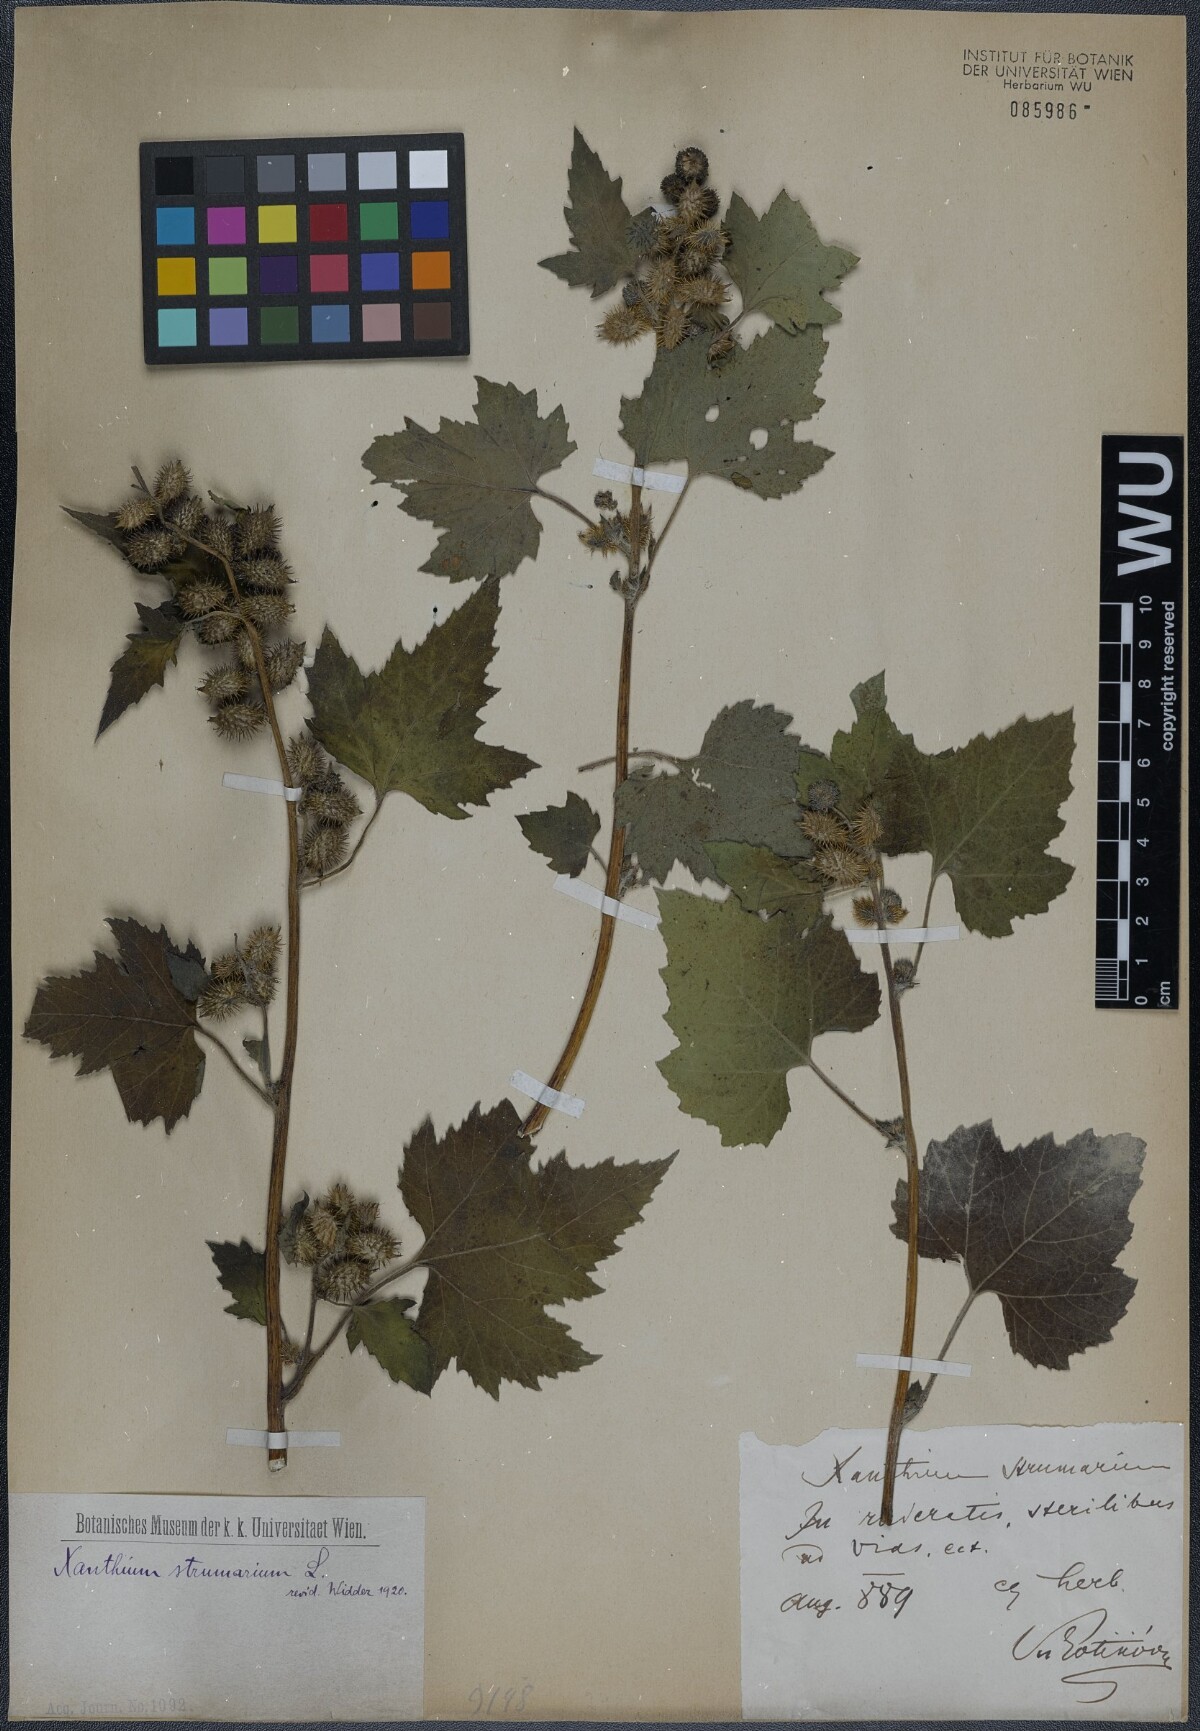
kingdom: Plantae
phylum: Tracheophyta
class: Magnoliopsida
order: Asterales
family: Asteraceae
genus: Xanthium
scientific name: Xanthium strumarium
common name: Rough cocklebur
